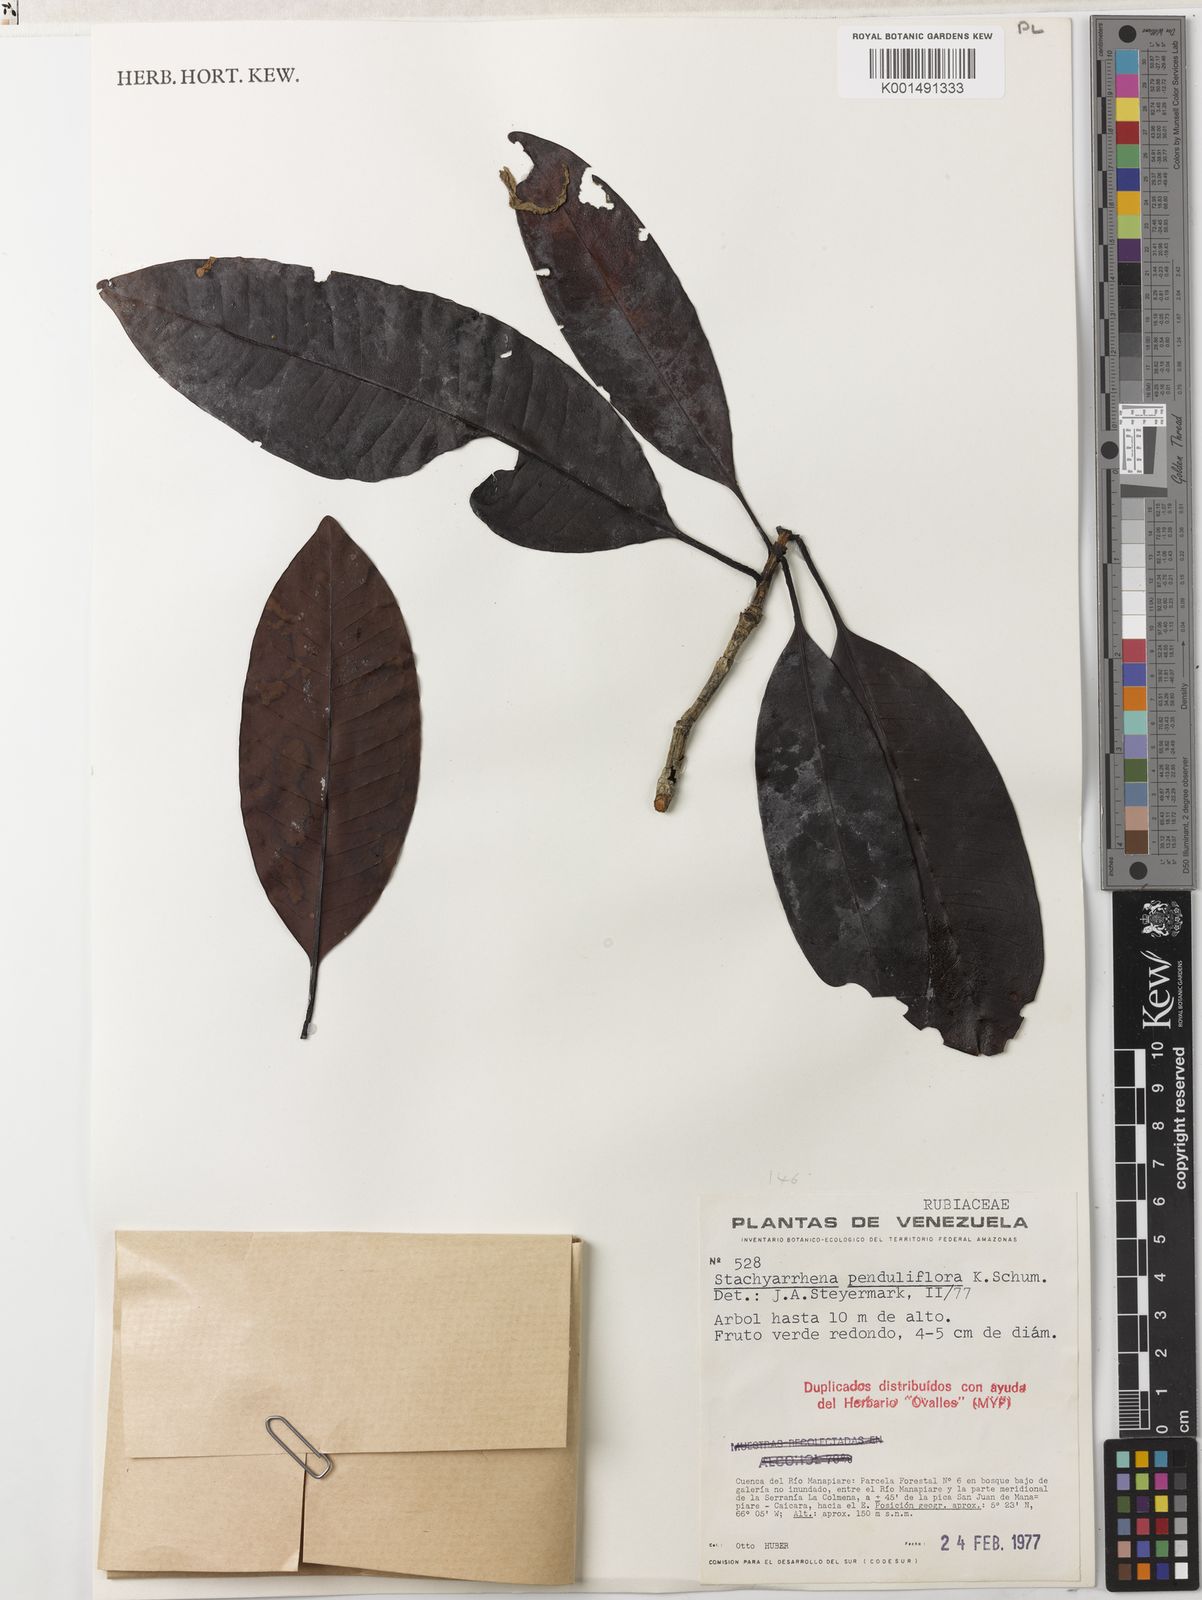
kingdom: Plantae
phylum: Tracheophyta
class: Magnoliopsida
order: Gentianales
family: Rubiaceae
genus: Stachyarrhena
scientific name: Stachyarrhena penduliflora
